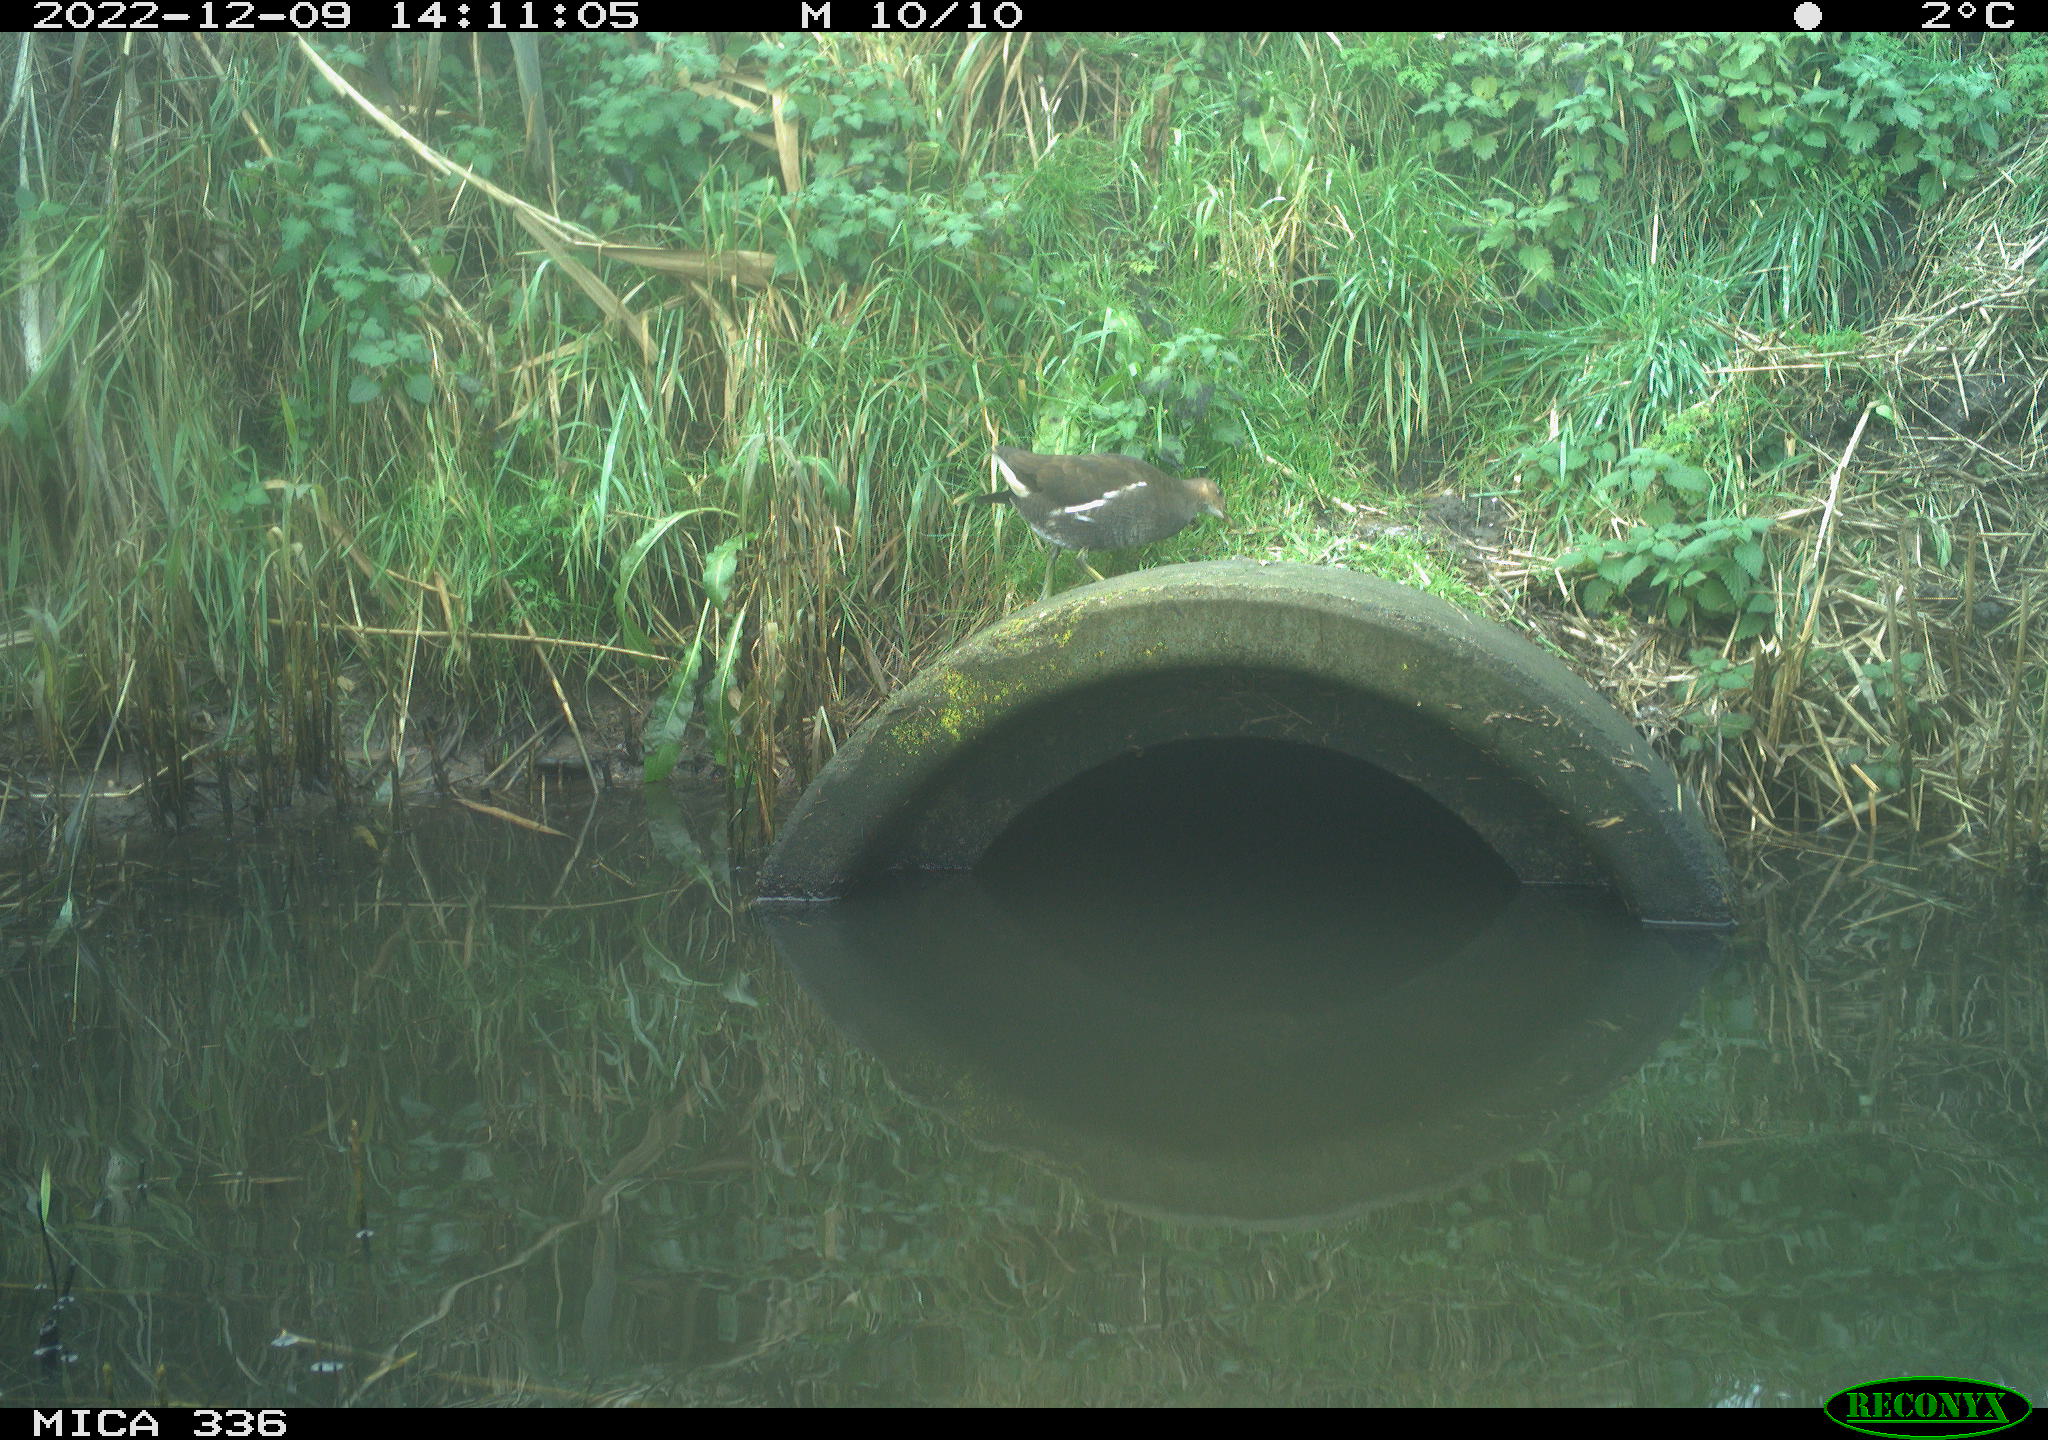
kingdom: Animalia
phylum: Chordata
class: Aves
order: Gruiformes
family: Rallidae
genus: Gallinula
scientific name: Gallinula chloropus
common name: Common moorhen
